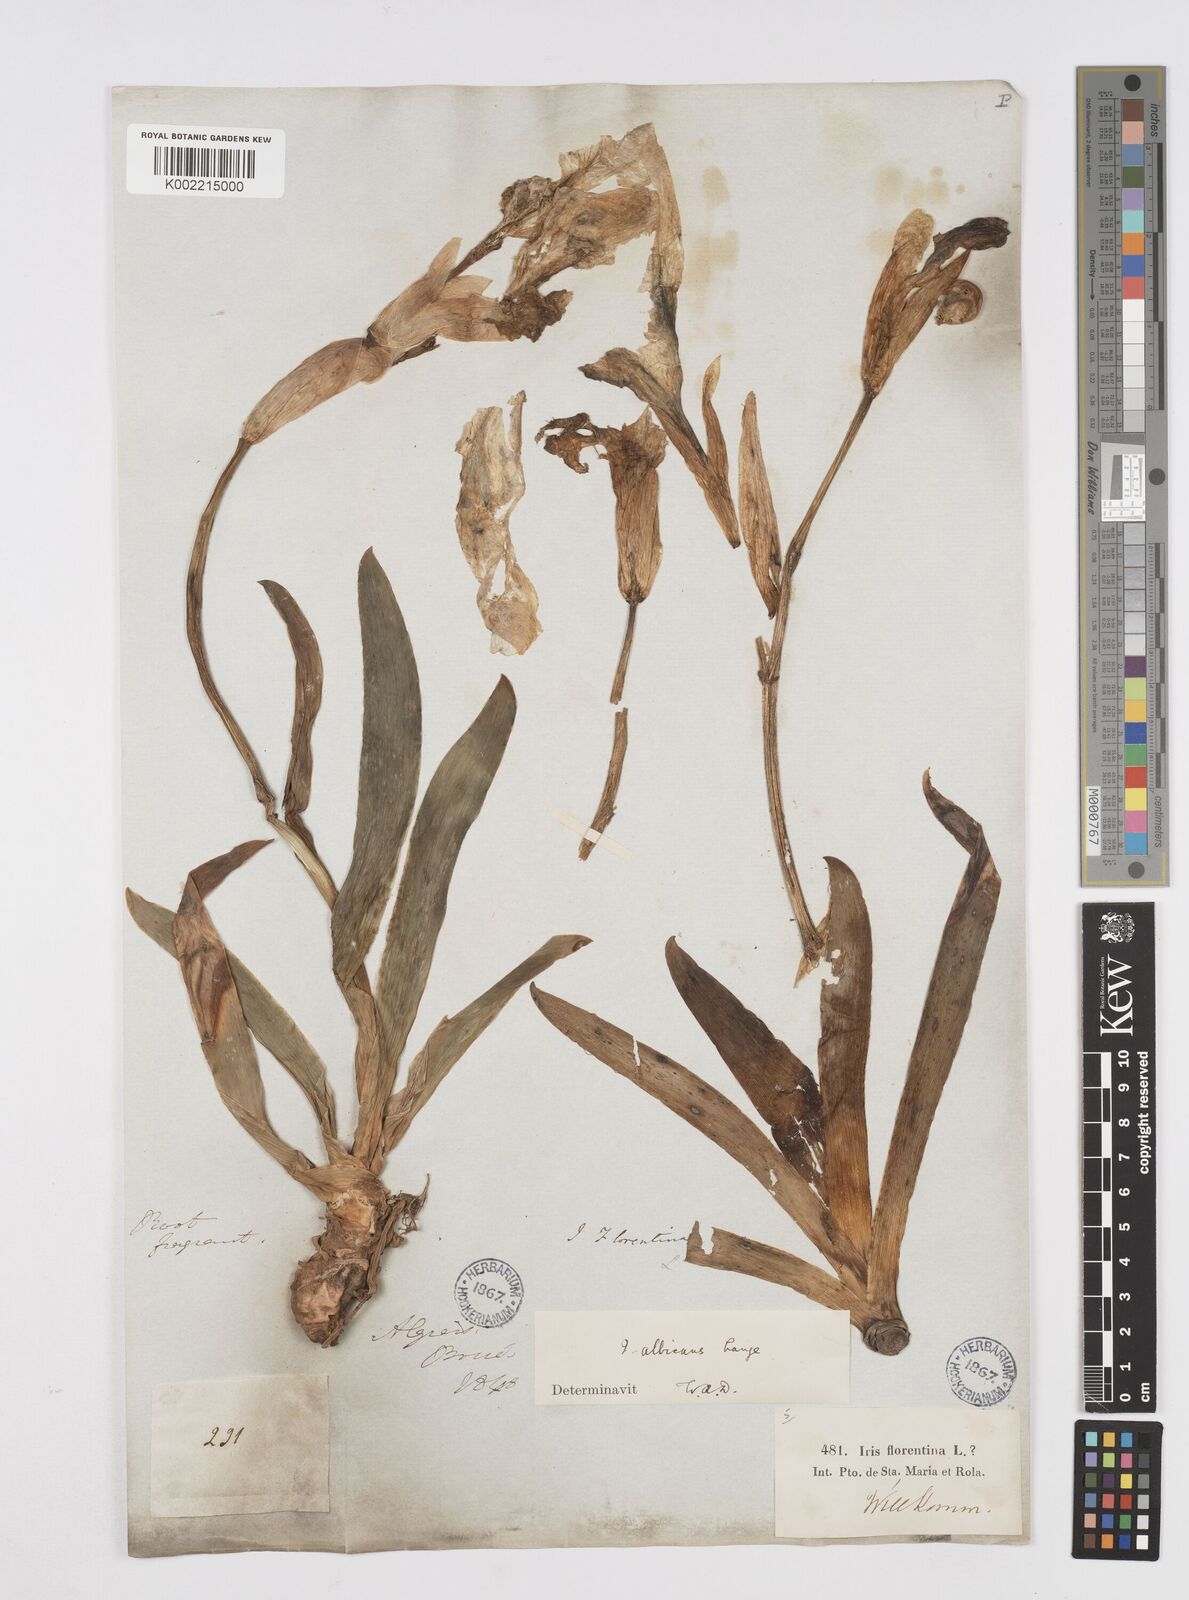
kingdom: Plantae
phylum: Tracheophyta
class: Liliopsida
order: Asparagales
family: Iridaceae
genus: Iris
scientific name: Iris florentina
